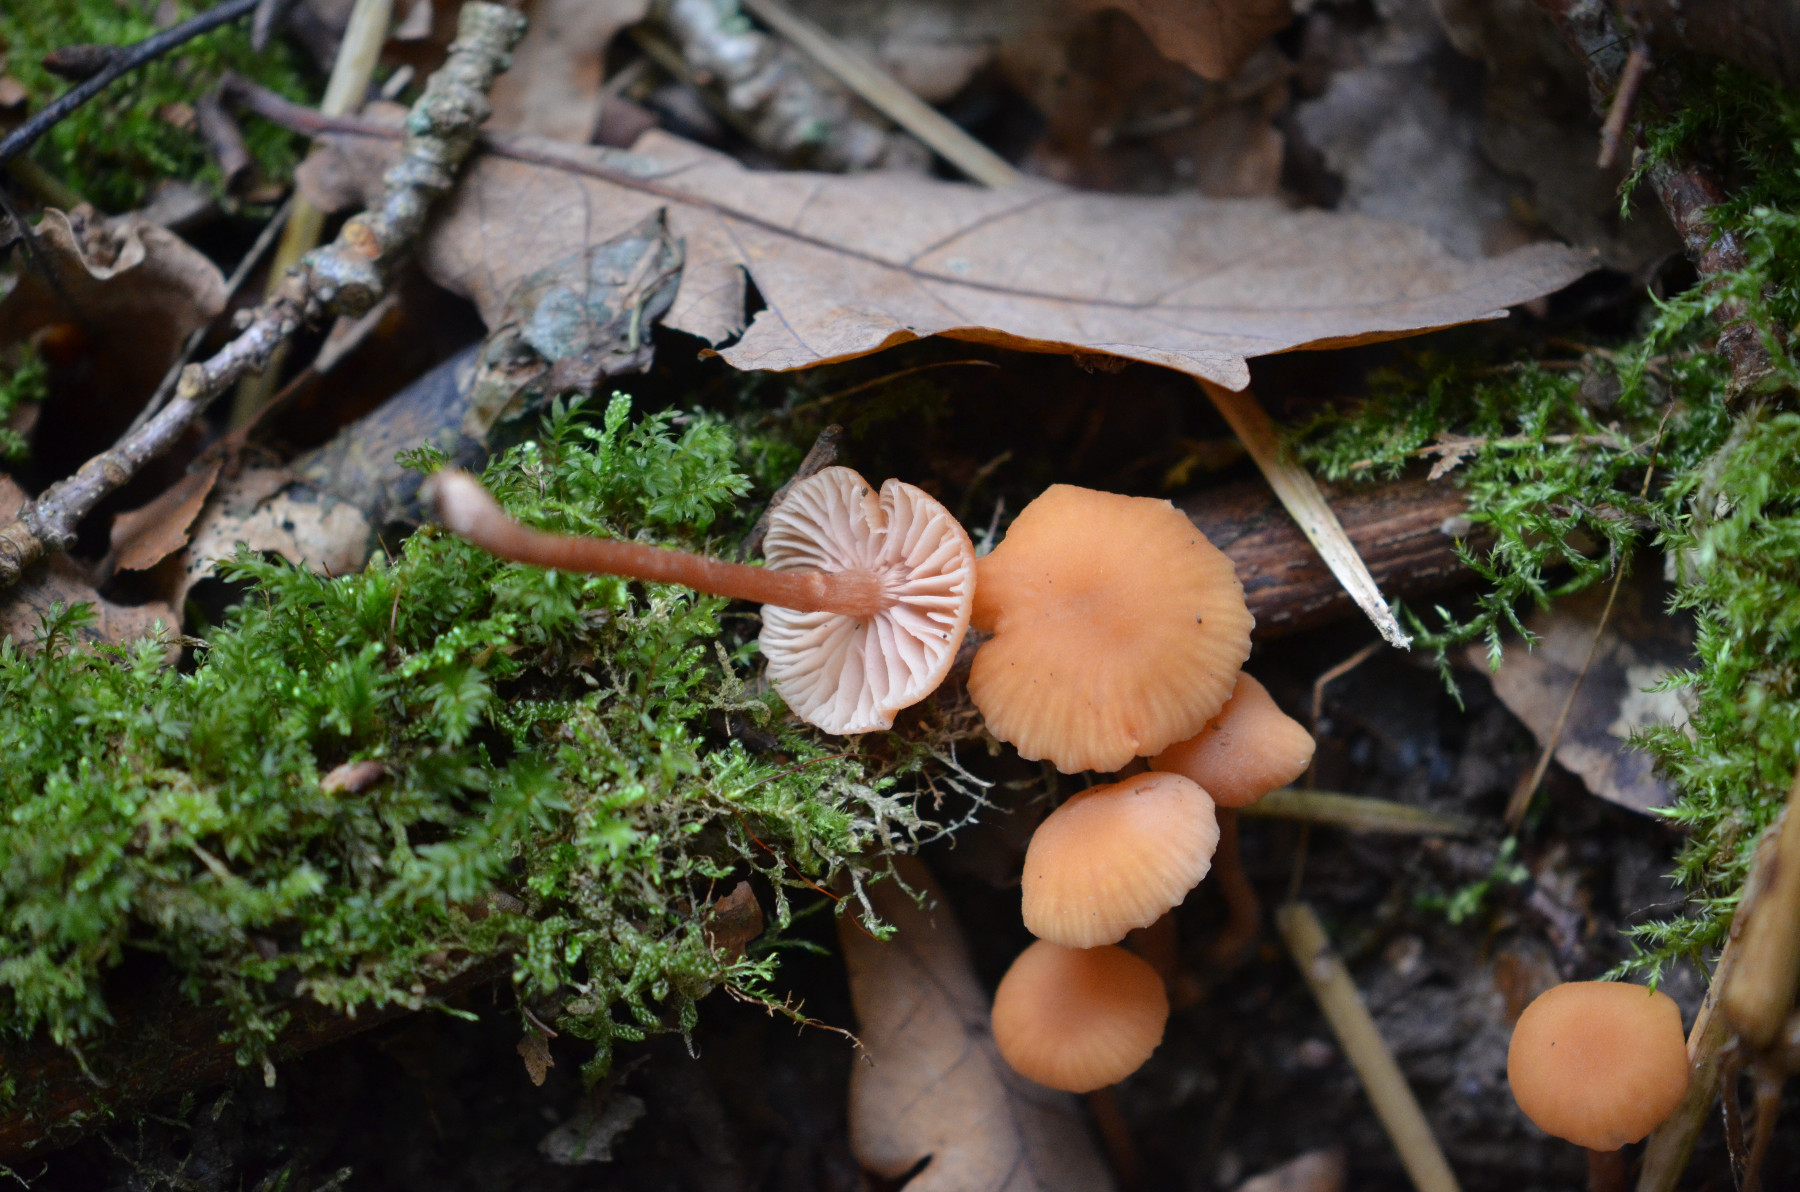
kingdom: Fungi
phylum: Basidiomycota
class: Agaricomycetes
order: Agaricales
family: Hydnangiaceae
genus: Laccaria
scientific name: Laccaria laccata
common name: rød ametysthat
